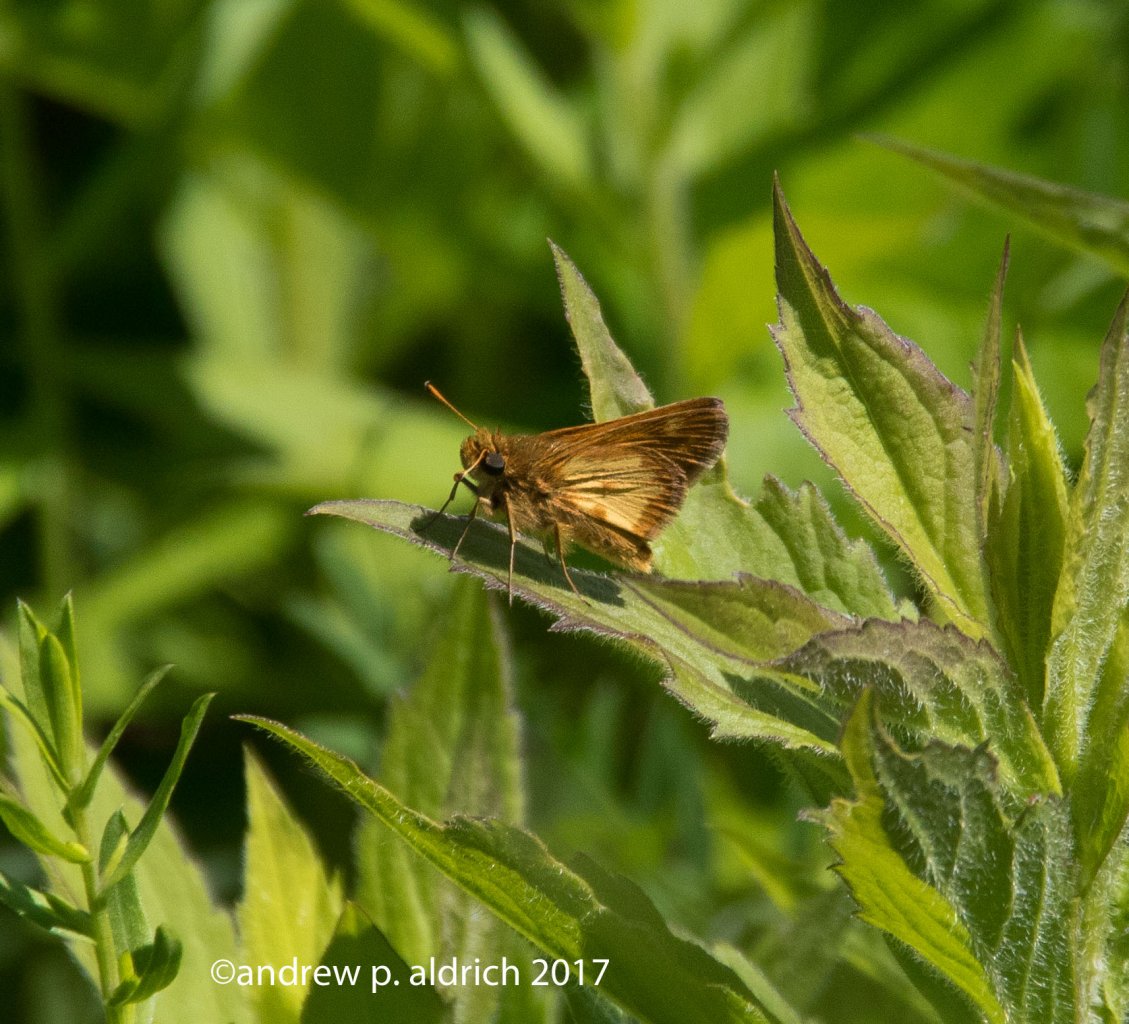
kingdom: Animalia
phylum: Arthropoda
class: Insecta
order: Lepidoptera
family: Hesperiidae
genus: Polites
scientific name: Polites coras
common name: Peck's Skipper
